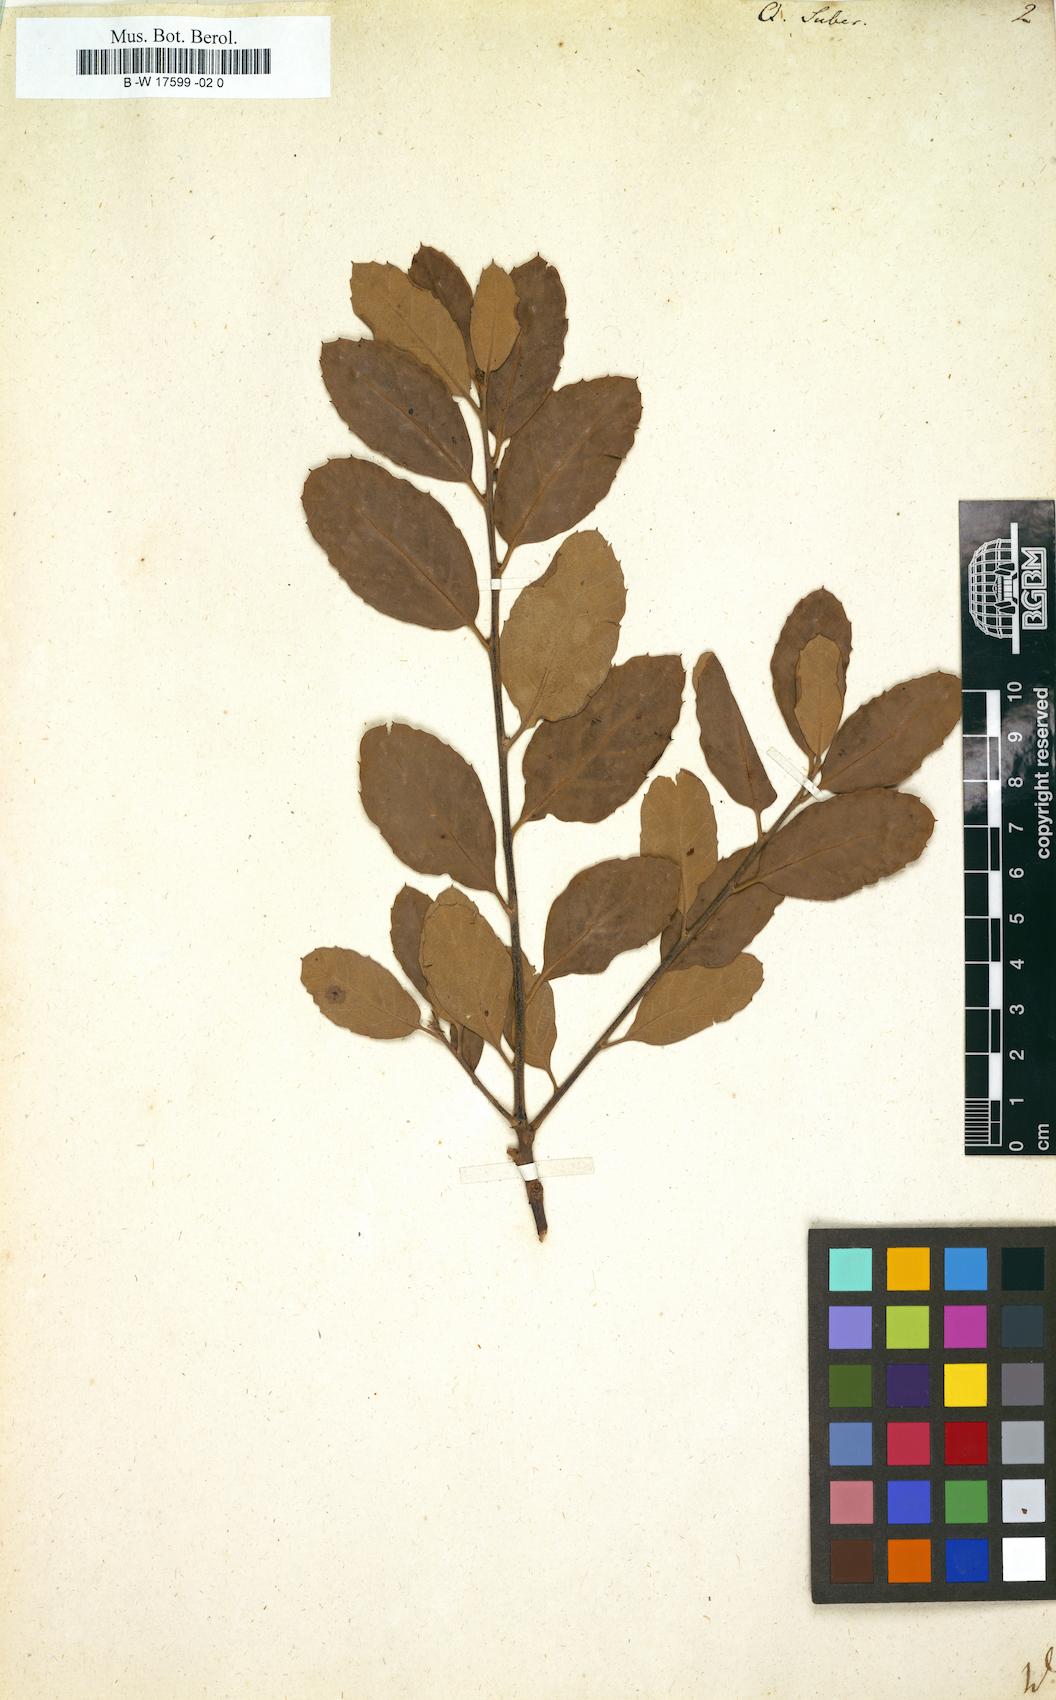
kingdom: Plantae
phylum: Tracheophyta
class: Magnoliopsida
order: Fagales
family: Fagaceae
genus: Quercus
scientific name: Quercus suber
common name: Cork oak
